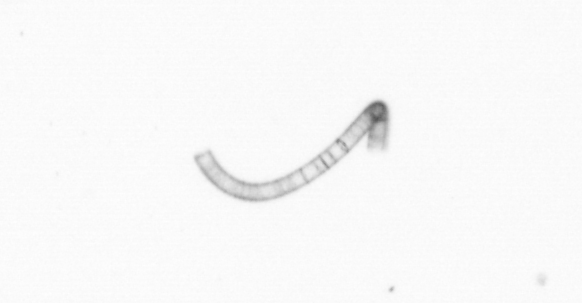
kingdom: Chromista
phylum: Ochrophyta
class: Bacillariophyceae
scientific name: Bacillariophyceae
